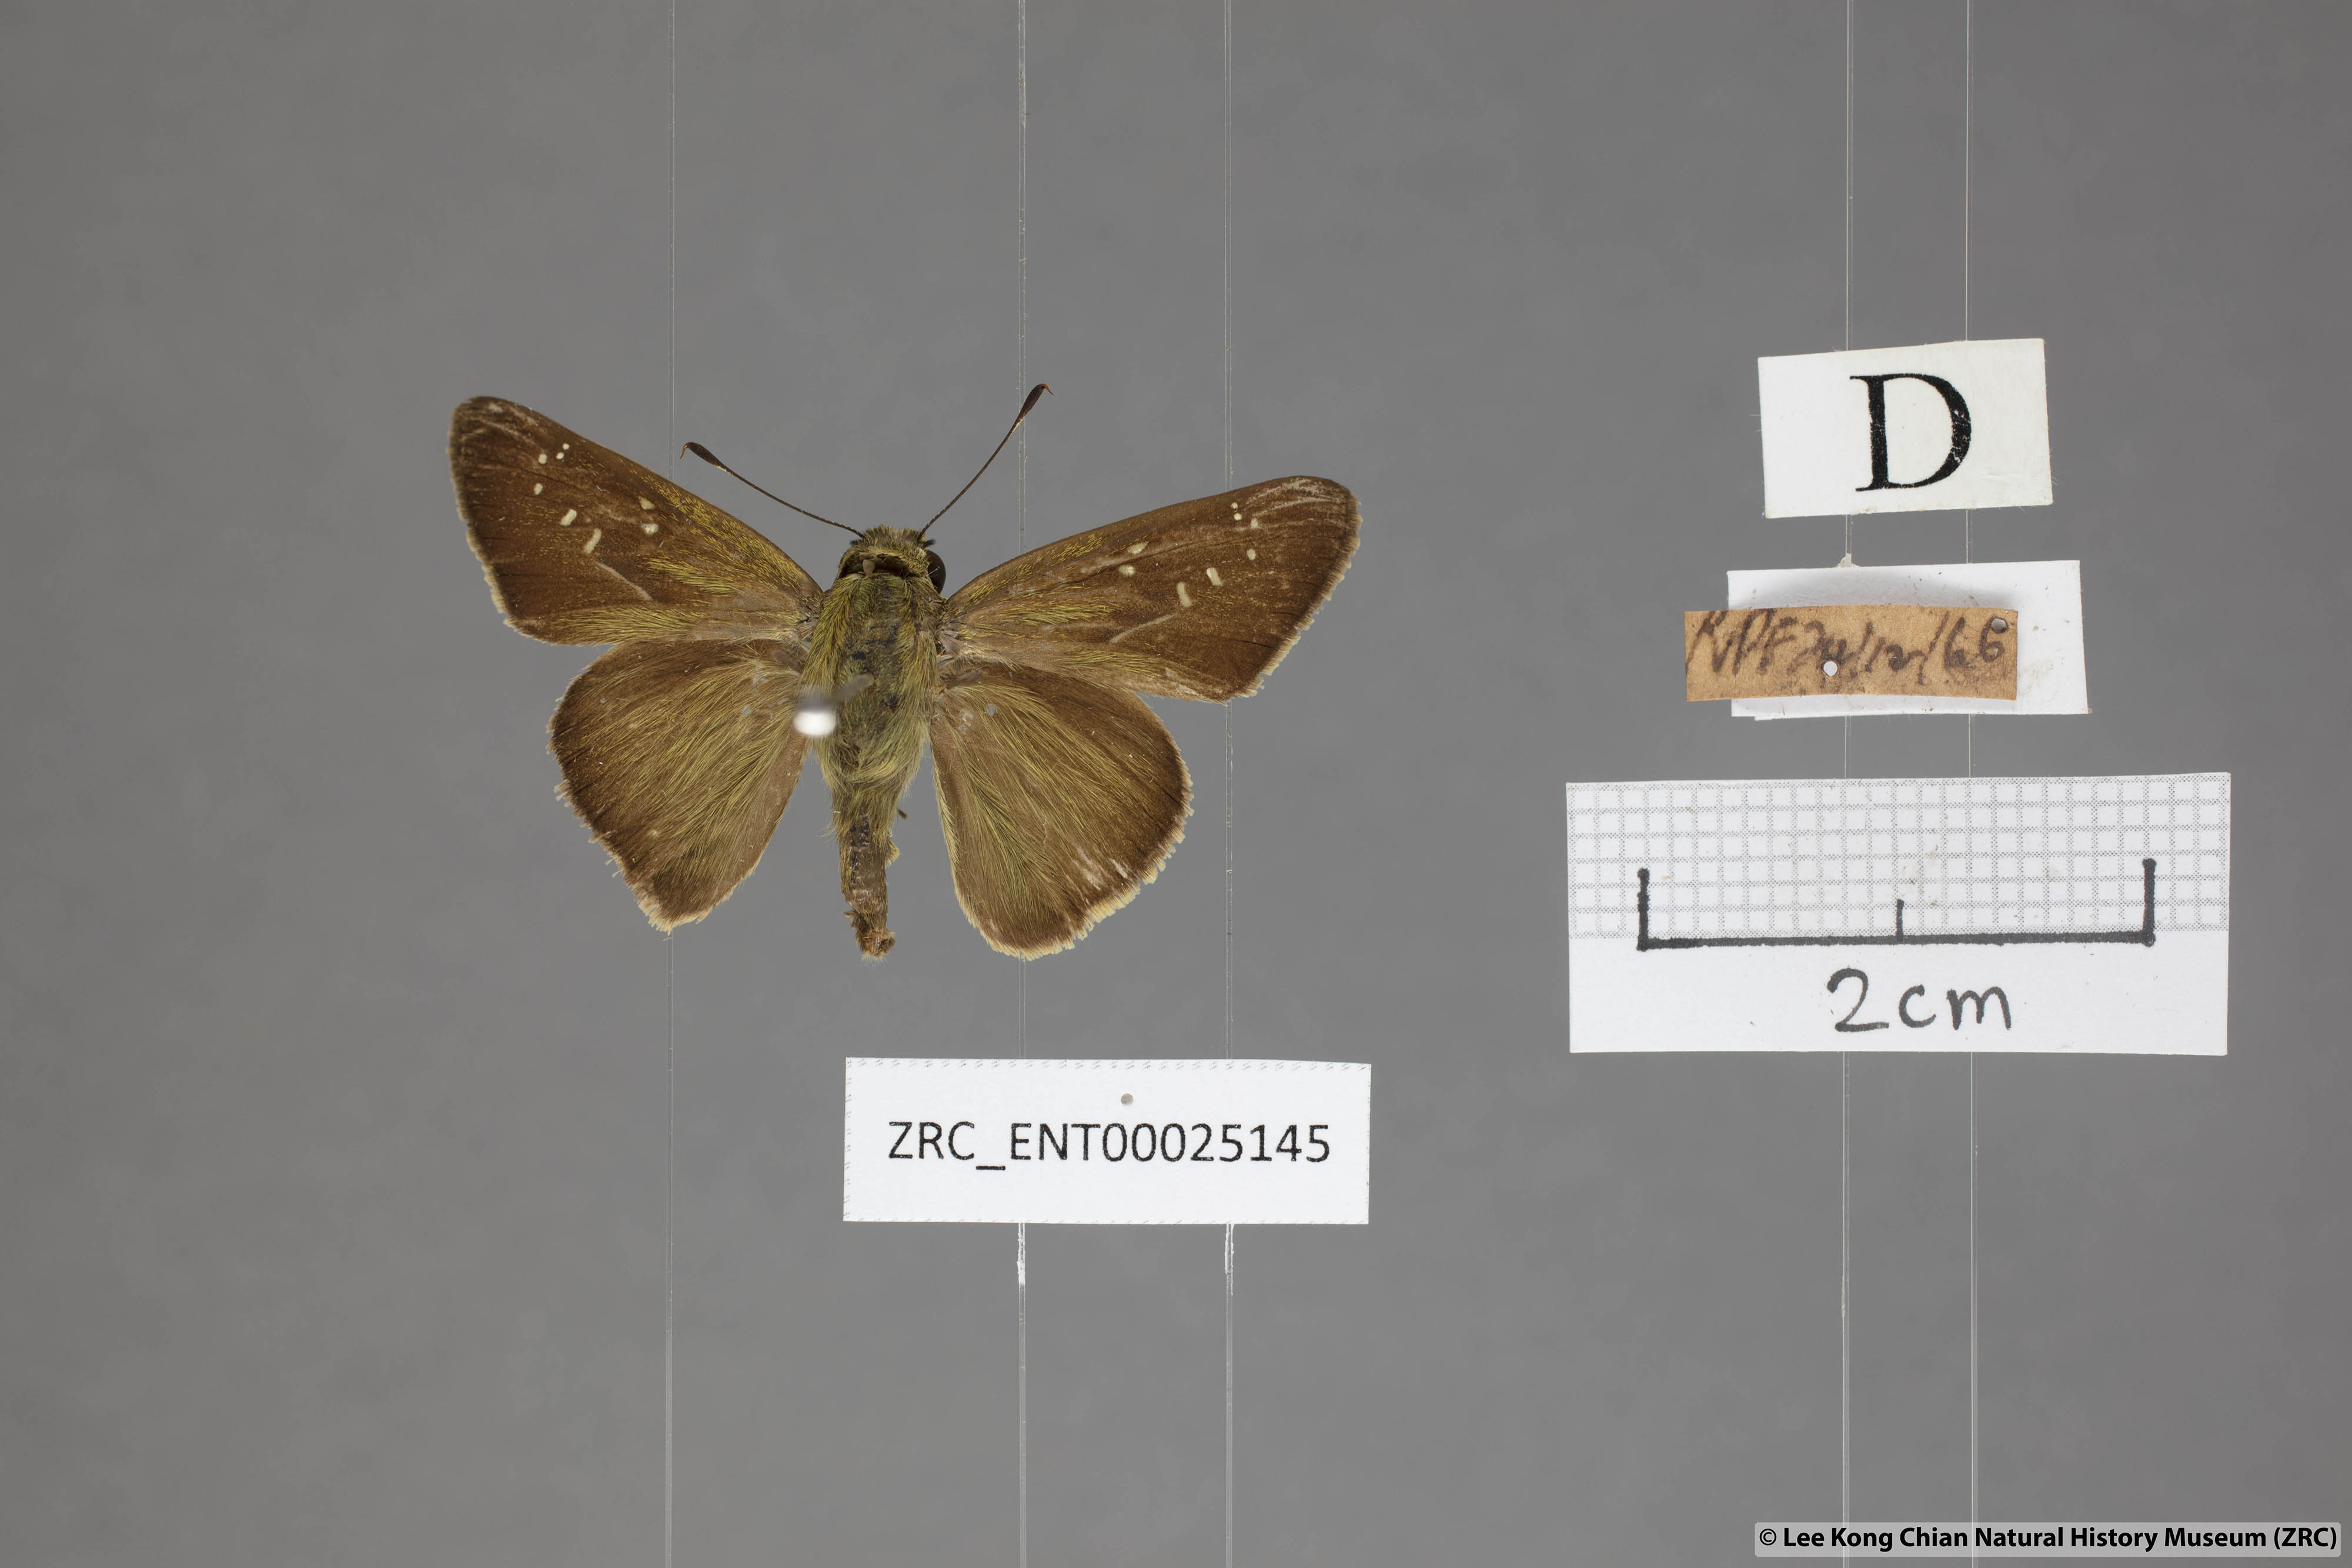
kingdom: Animalia
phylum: Arthropoda
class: Insecta
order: Lepidoptera
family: Hesperiidae
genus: Pelopidas
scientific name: Pelopidas agna
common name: Little branded swift
